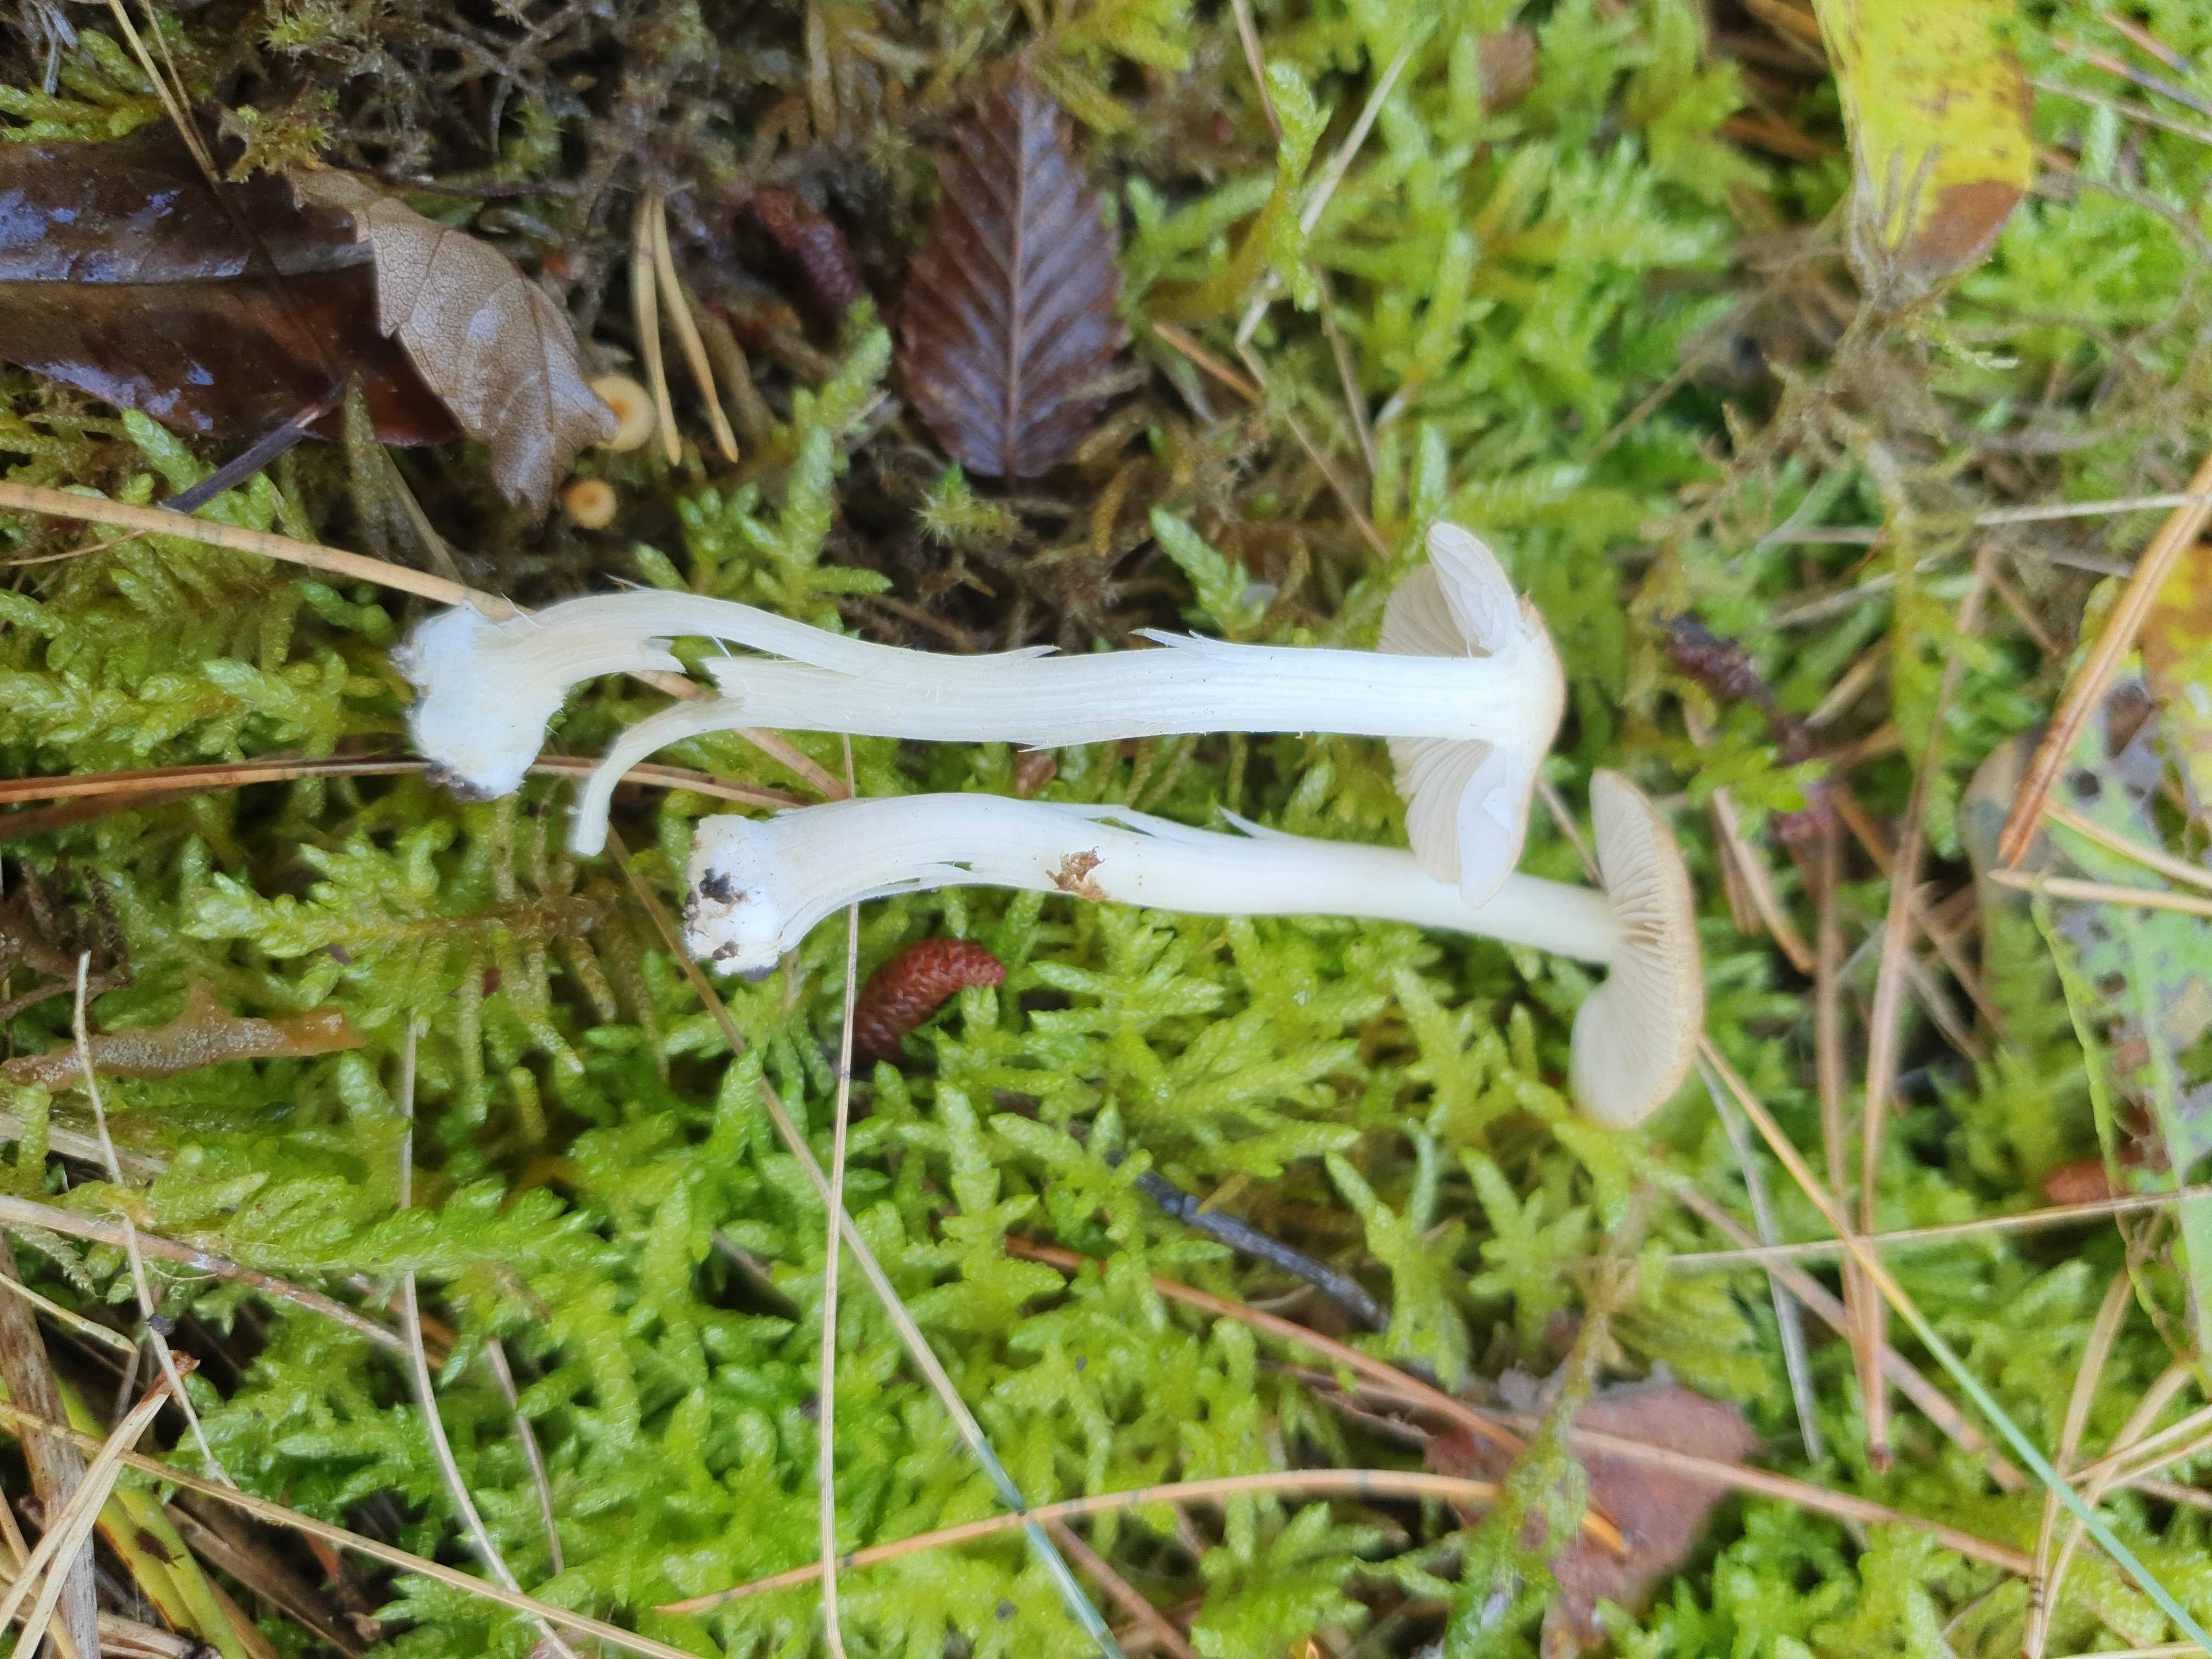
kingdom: Fungi
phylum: Basidiomycota
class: Agaricomycetes
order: Agaricales
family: Inocybaceae
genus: Inocybe
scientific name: Inocybe mixtilis
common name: randknoldet trævlhat
